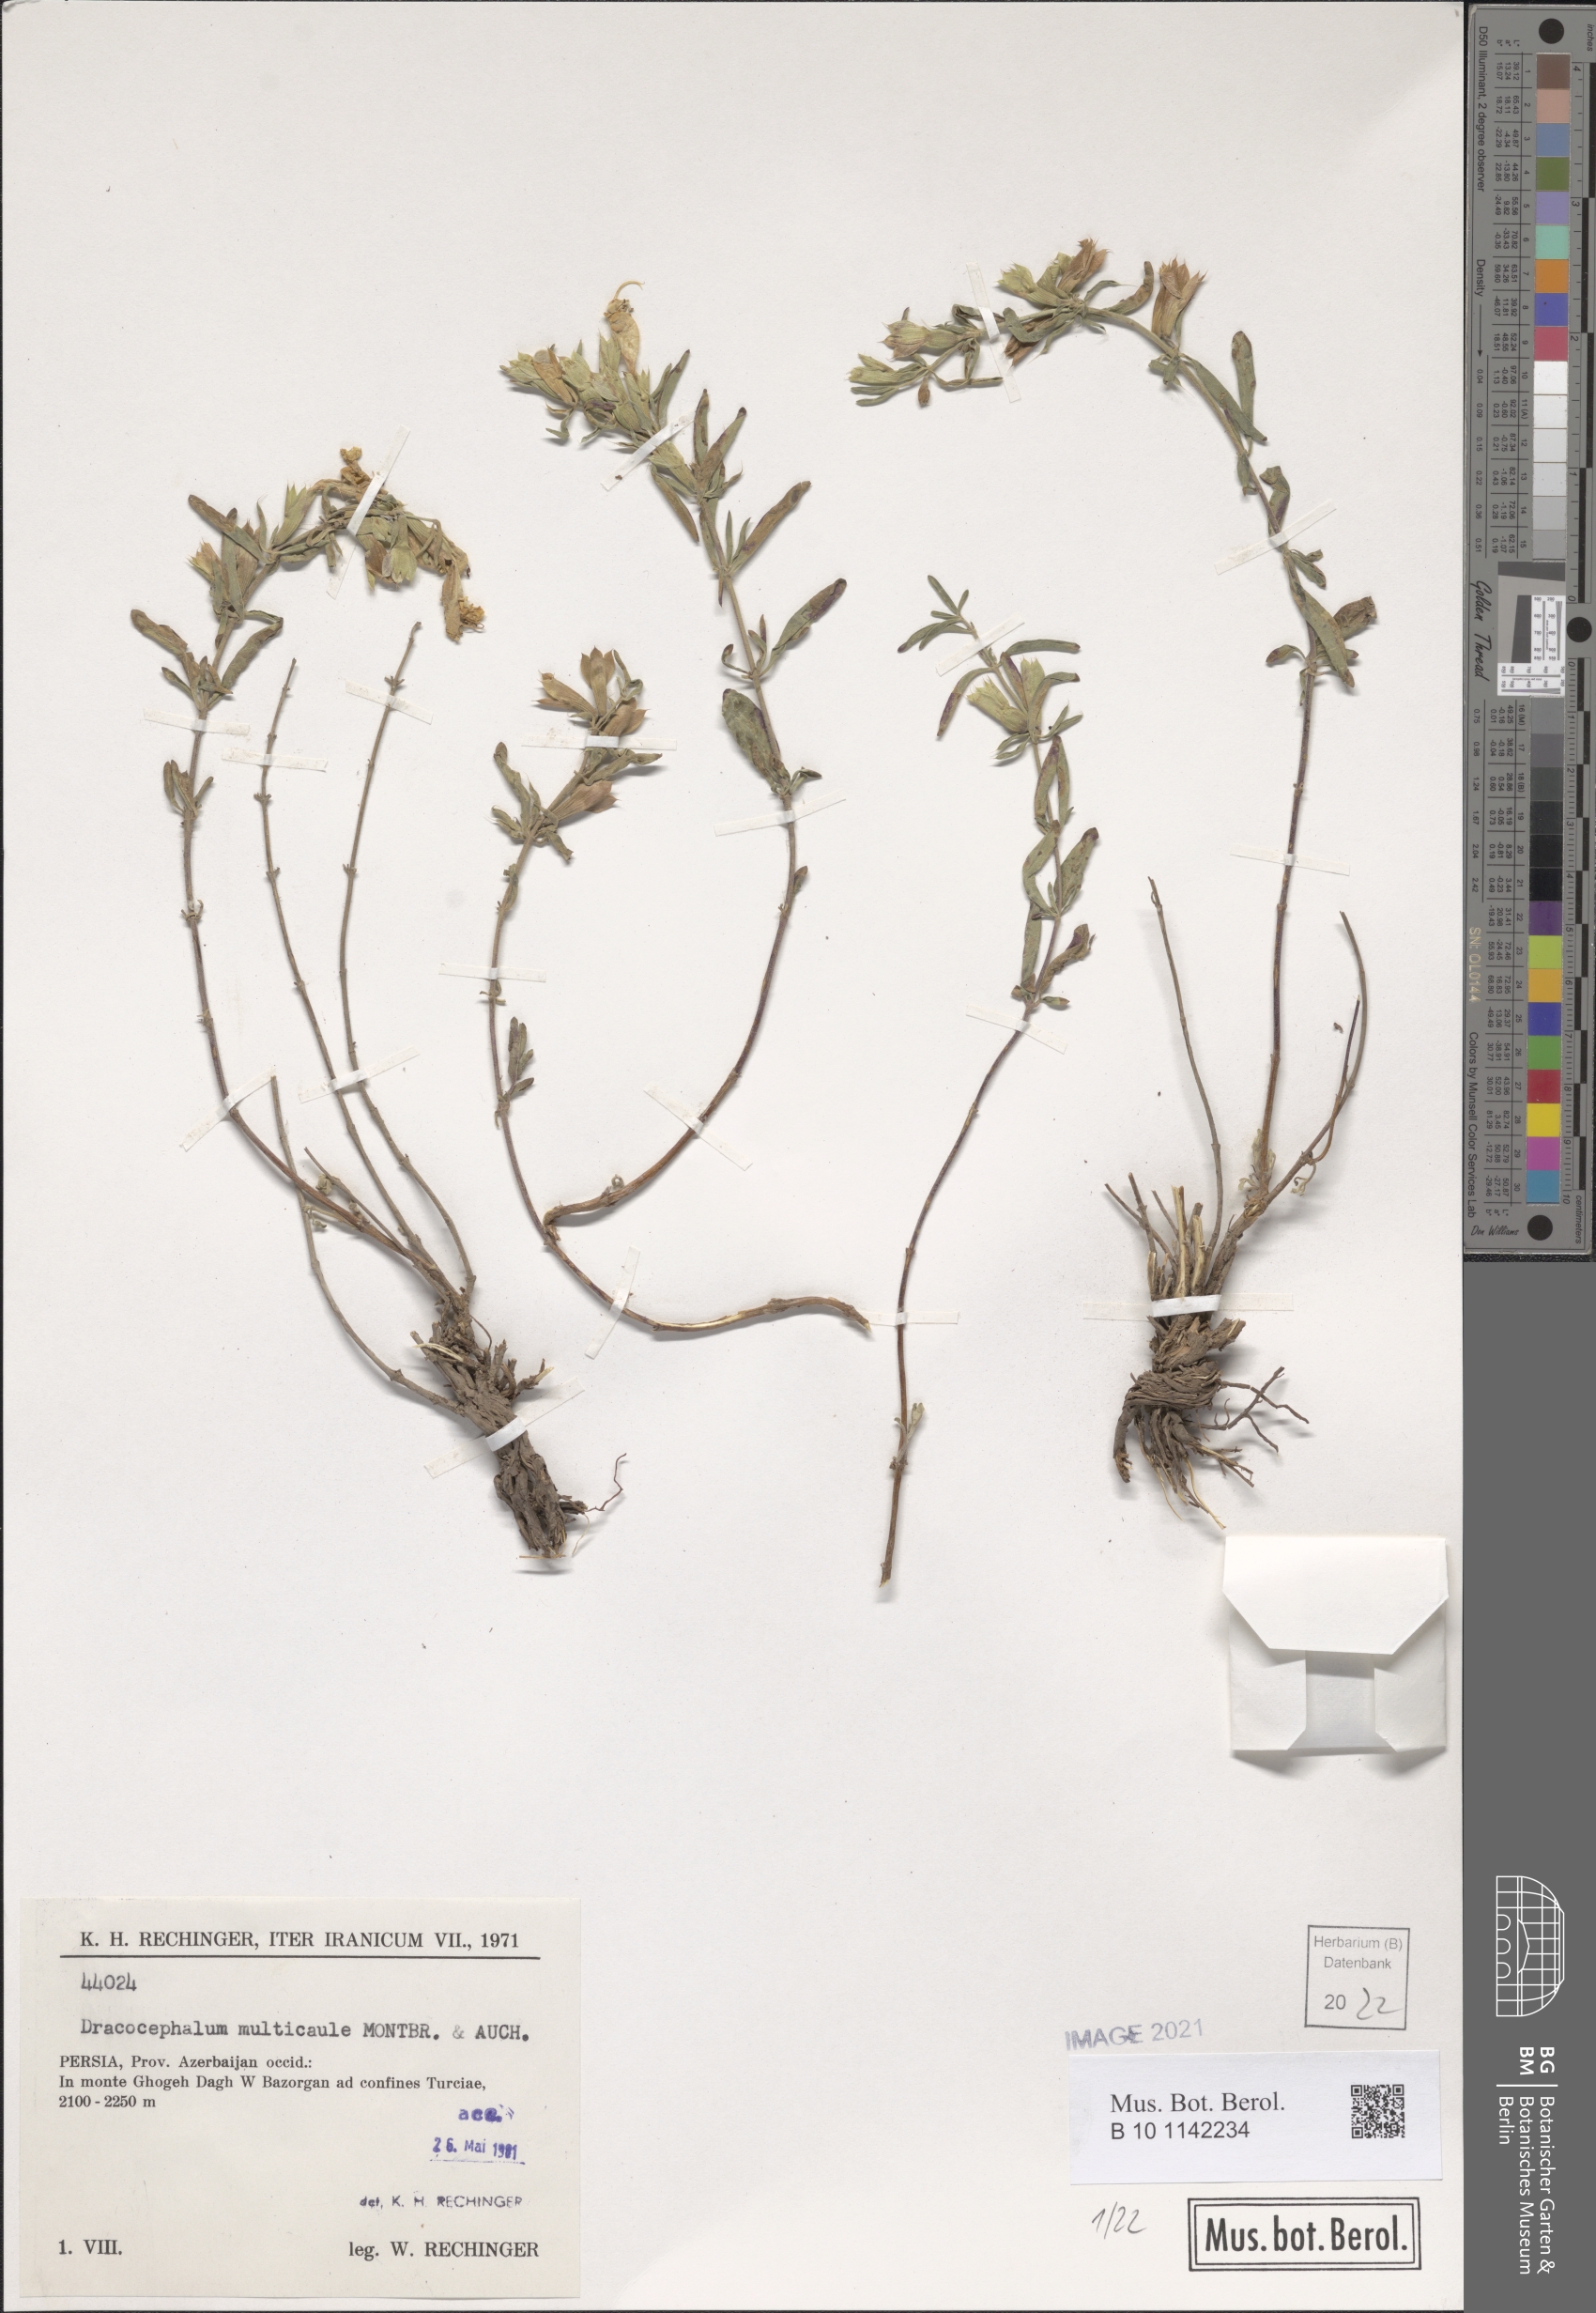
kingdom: Plantae
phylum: Tracheophyta
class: Magnoliopsida
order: Lamiales
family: Lamiaceae
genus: Dracocephalum
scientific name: Dracocephalum multicaule
